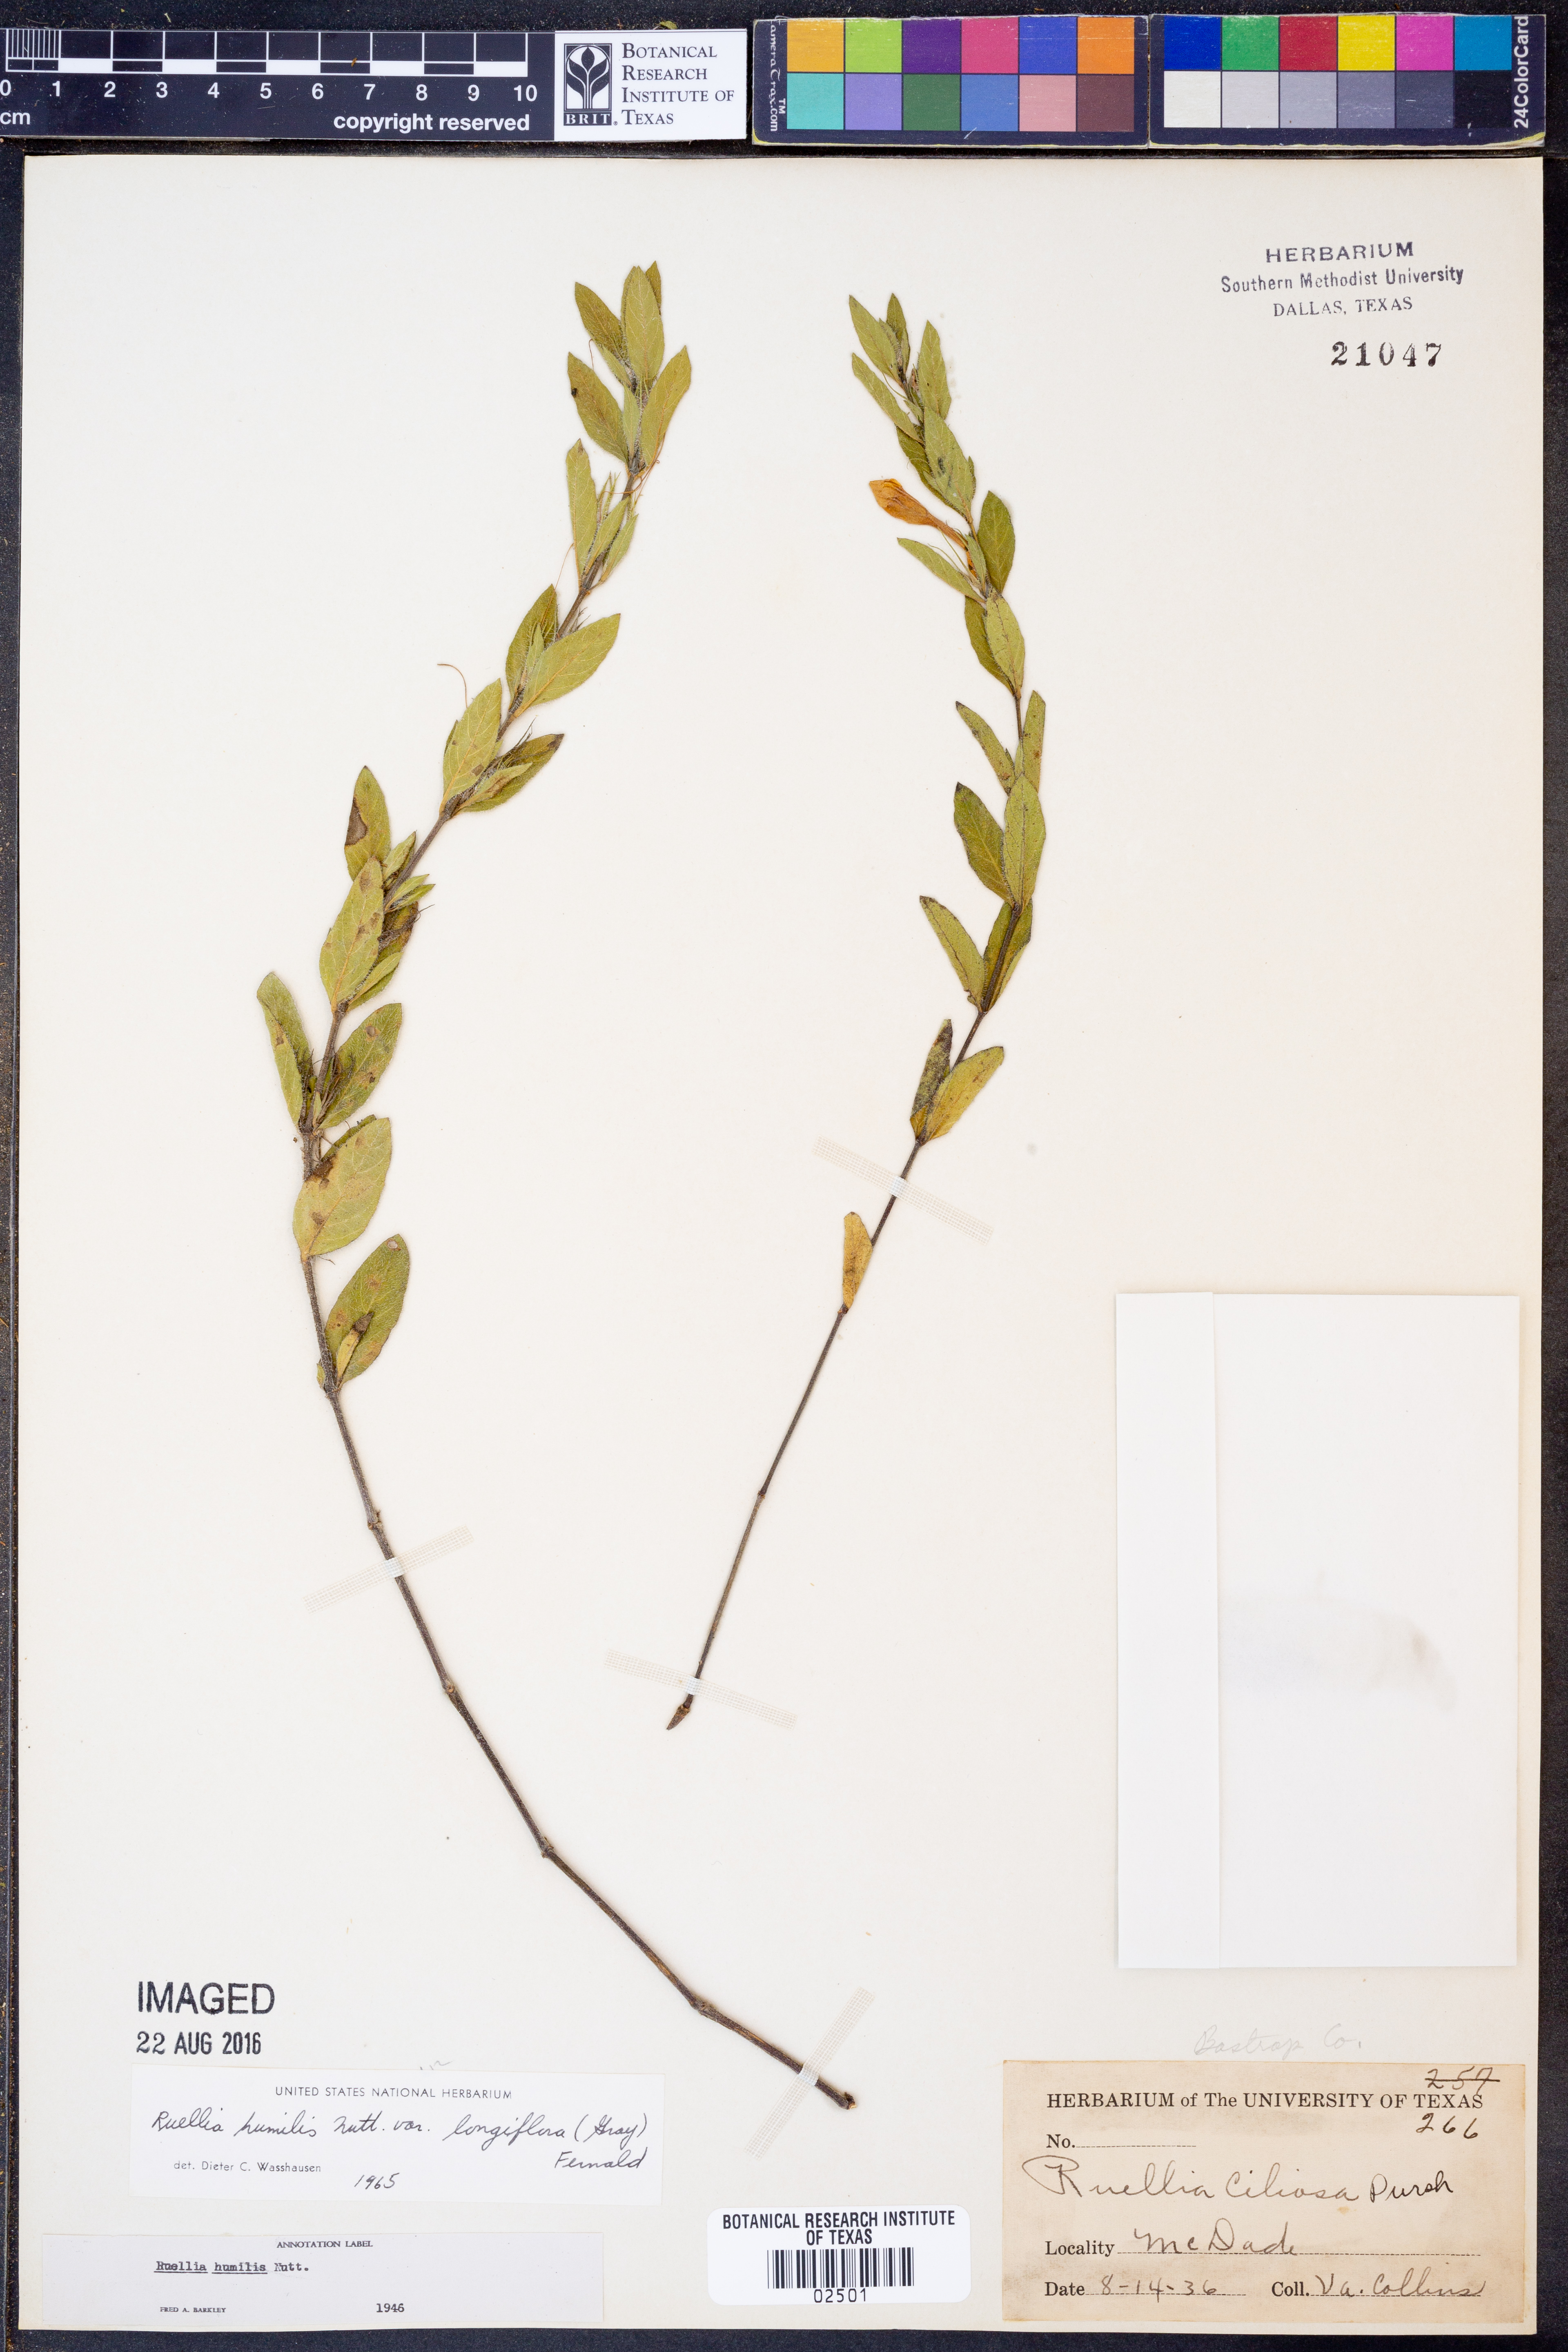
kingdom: Plantae
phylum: Tracheophyta
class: Magnoliopsida
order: Lamiales
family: Acanthaceae
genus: Ruellia
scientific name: Ruellia humilis
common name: Fringe-leaf ruellia
